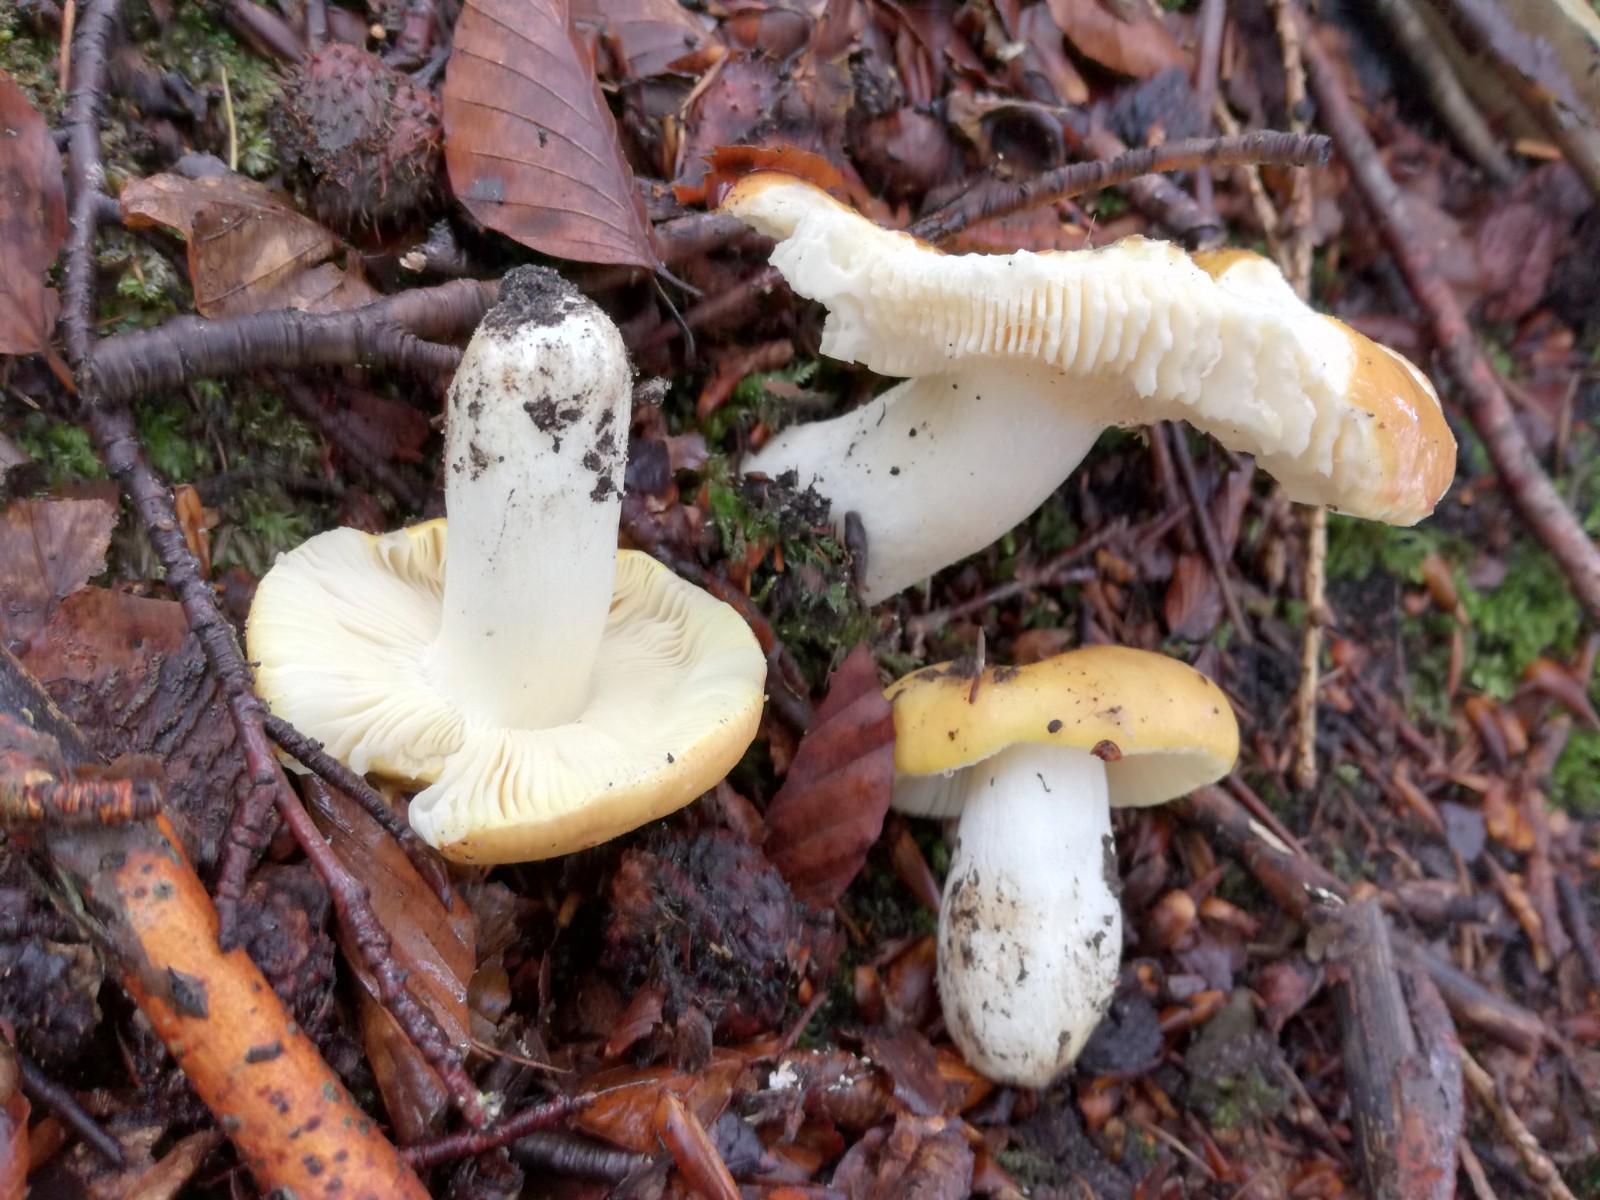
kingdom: Fungi
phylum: Basidiomycota
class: Agaricomycetes
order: Russulales
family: Russulaceae
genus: Russula
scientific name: Russula aurea
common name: gylden skørhat
